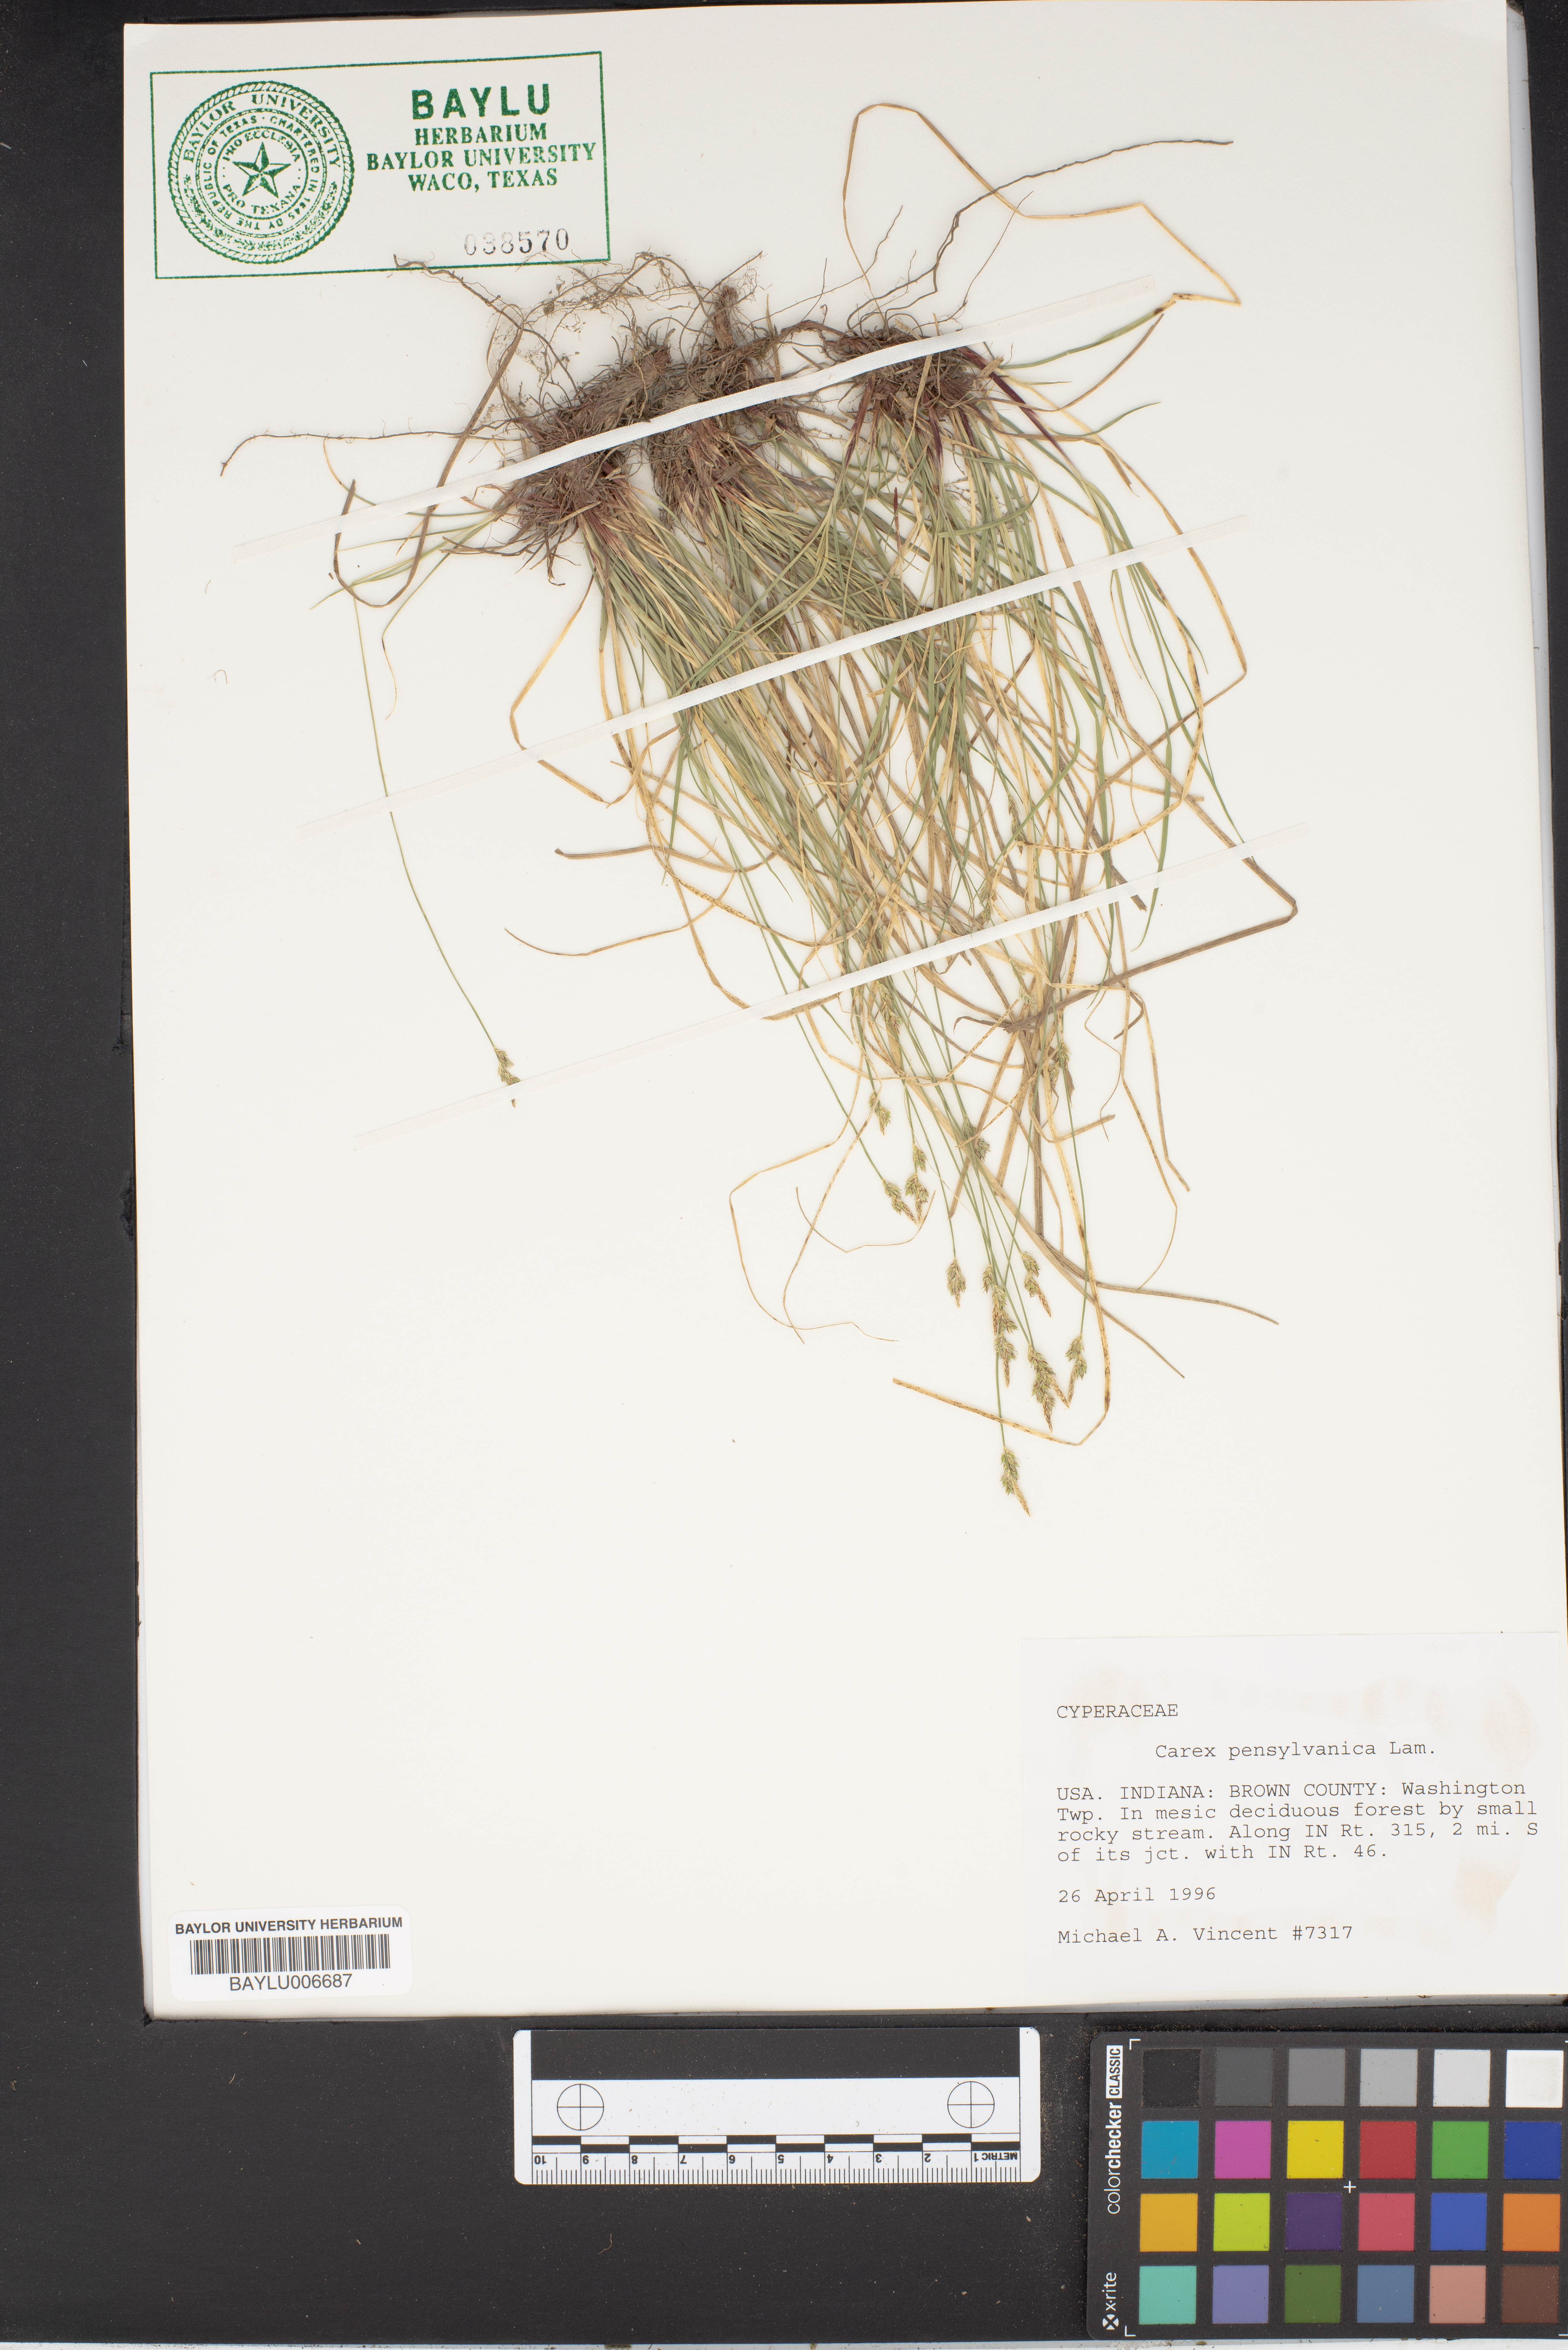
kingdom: Plantae
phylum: Tracheophyta
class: Liliopsida
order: Poales
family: Cyperaceae
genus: Carex
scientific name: Carex pensylvanica
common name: Common oak sedge
